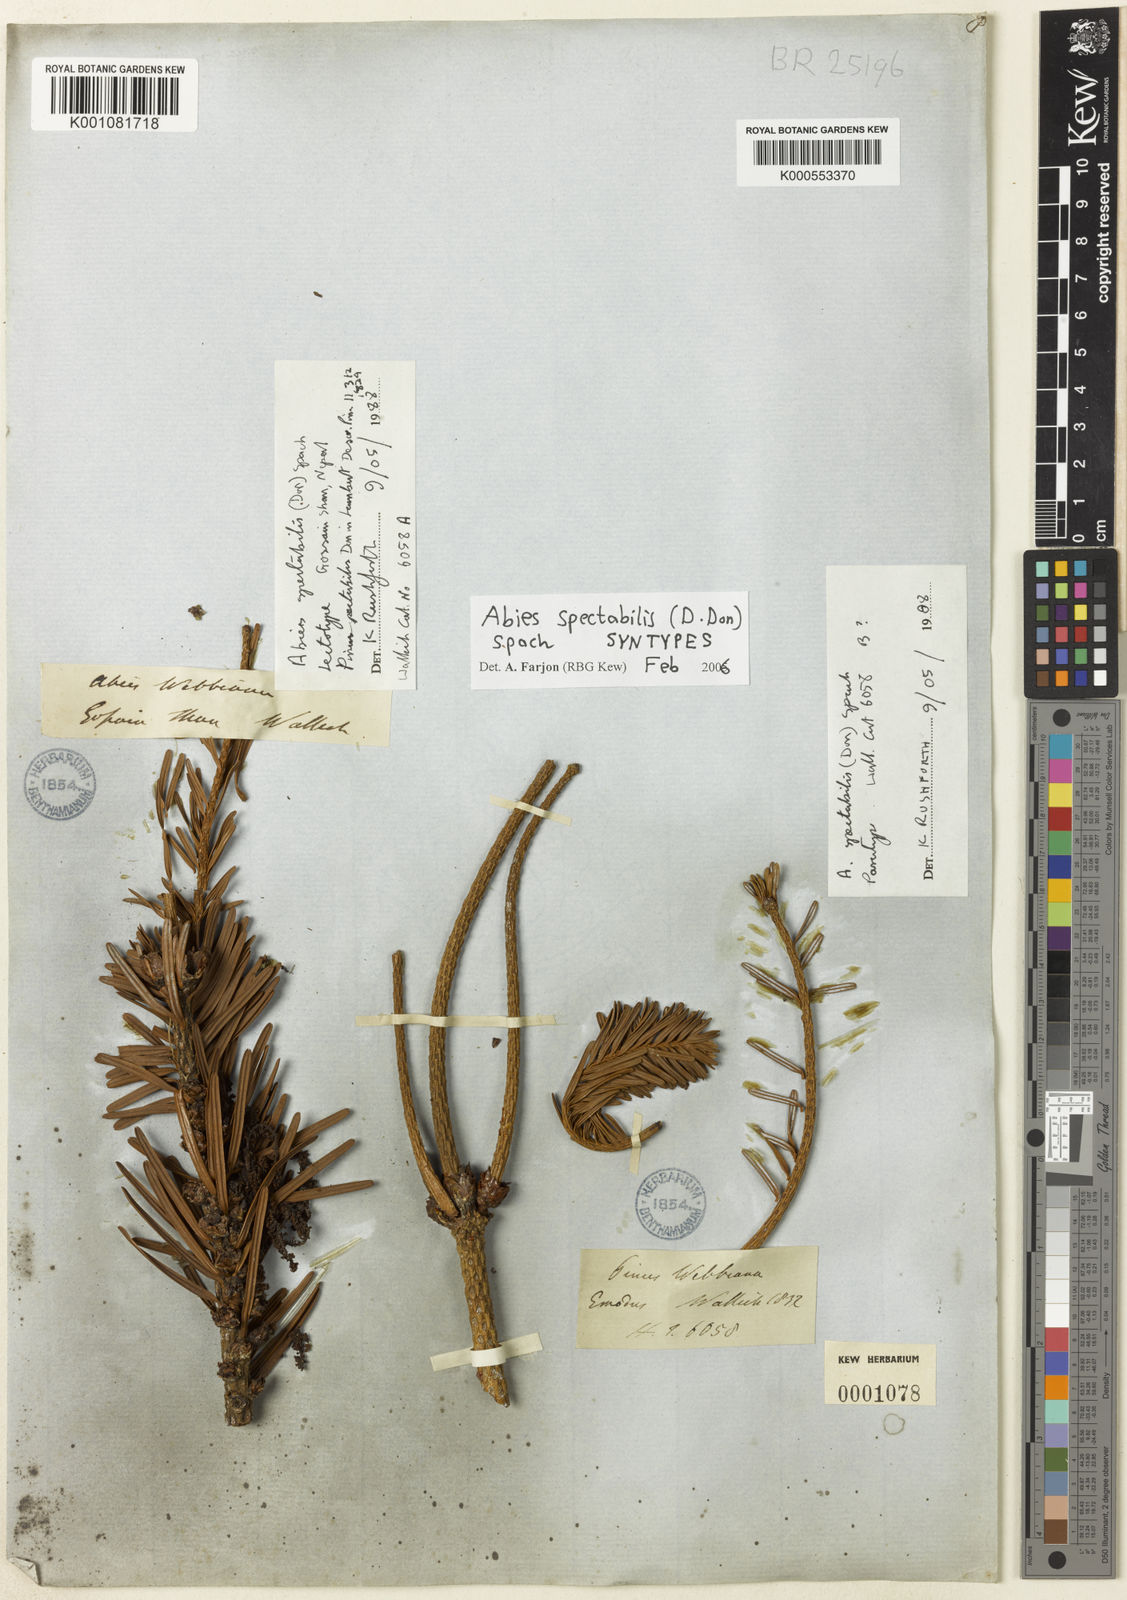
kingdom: Plantae
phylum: Tracheophyta
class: Pinopsida
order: Pinales
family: Pinaceae
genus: Abies
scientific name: Abies spectabilis
